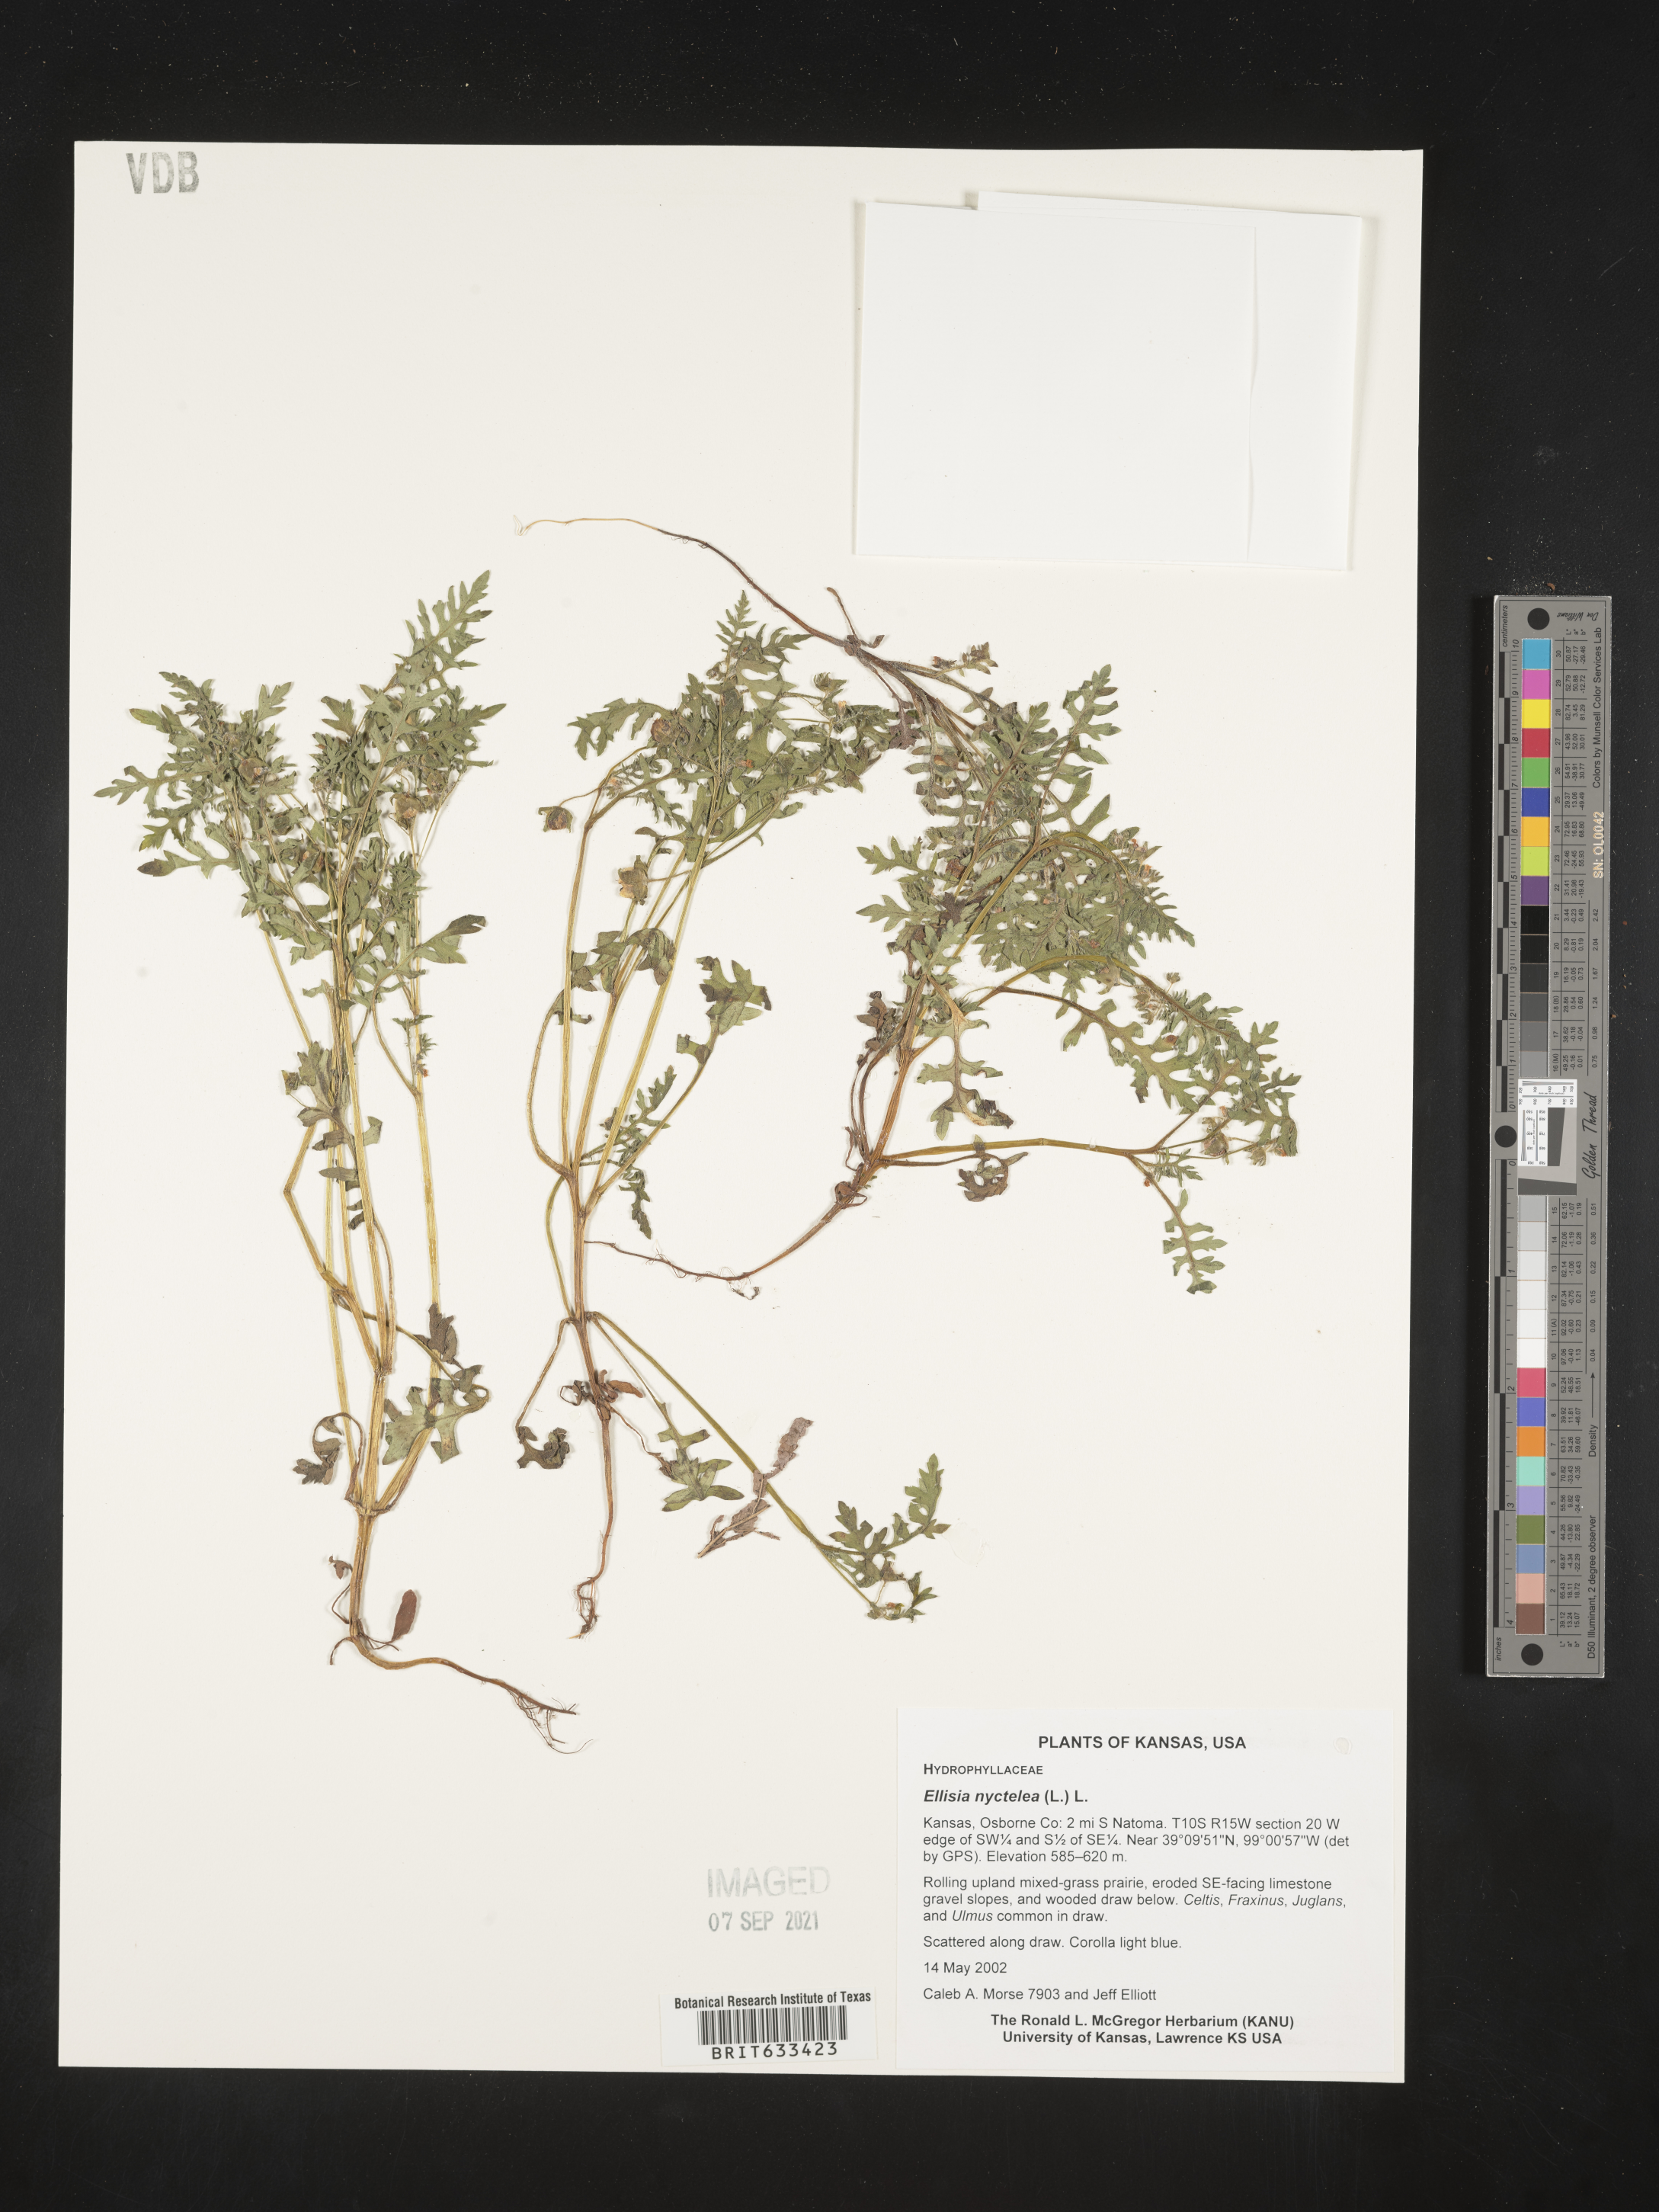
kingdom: Plantae
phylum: Tracheophyta
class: Magnoliopsida
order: Boraginales
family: Hydrophyllaceae
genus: Ellisia
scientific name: Ellisia nyctelea
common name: Aunt lucy
